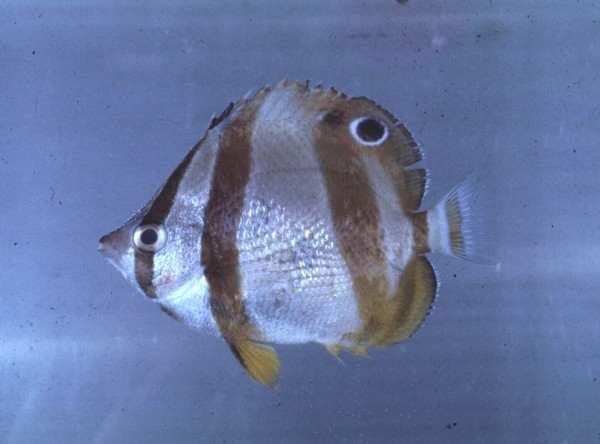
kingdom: Animalia
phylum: Chordata
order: Perciformes
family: Chaetodontidae
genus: Chaetodon
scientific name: Chaetodon marleyi
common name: Doubledash butterflyfish
